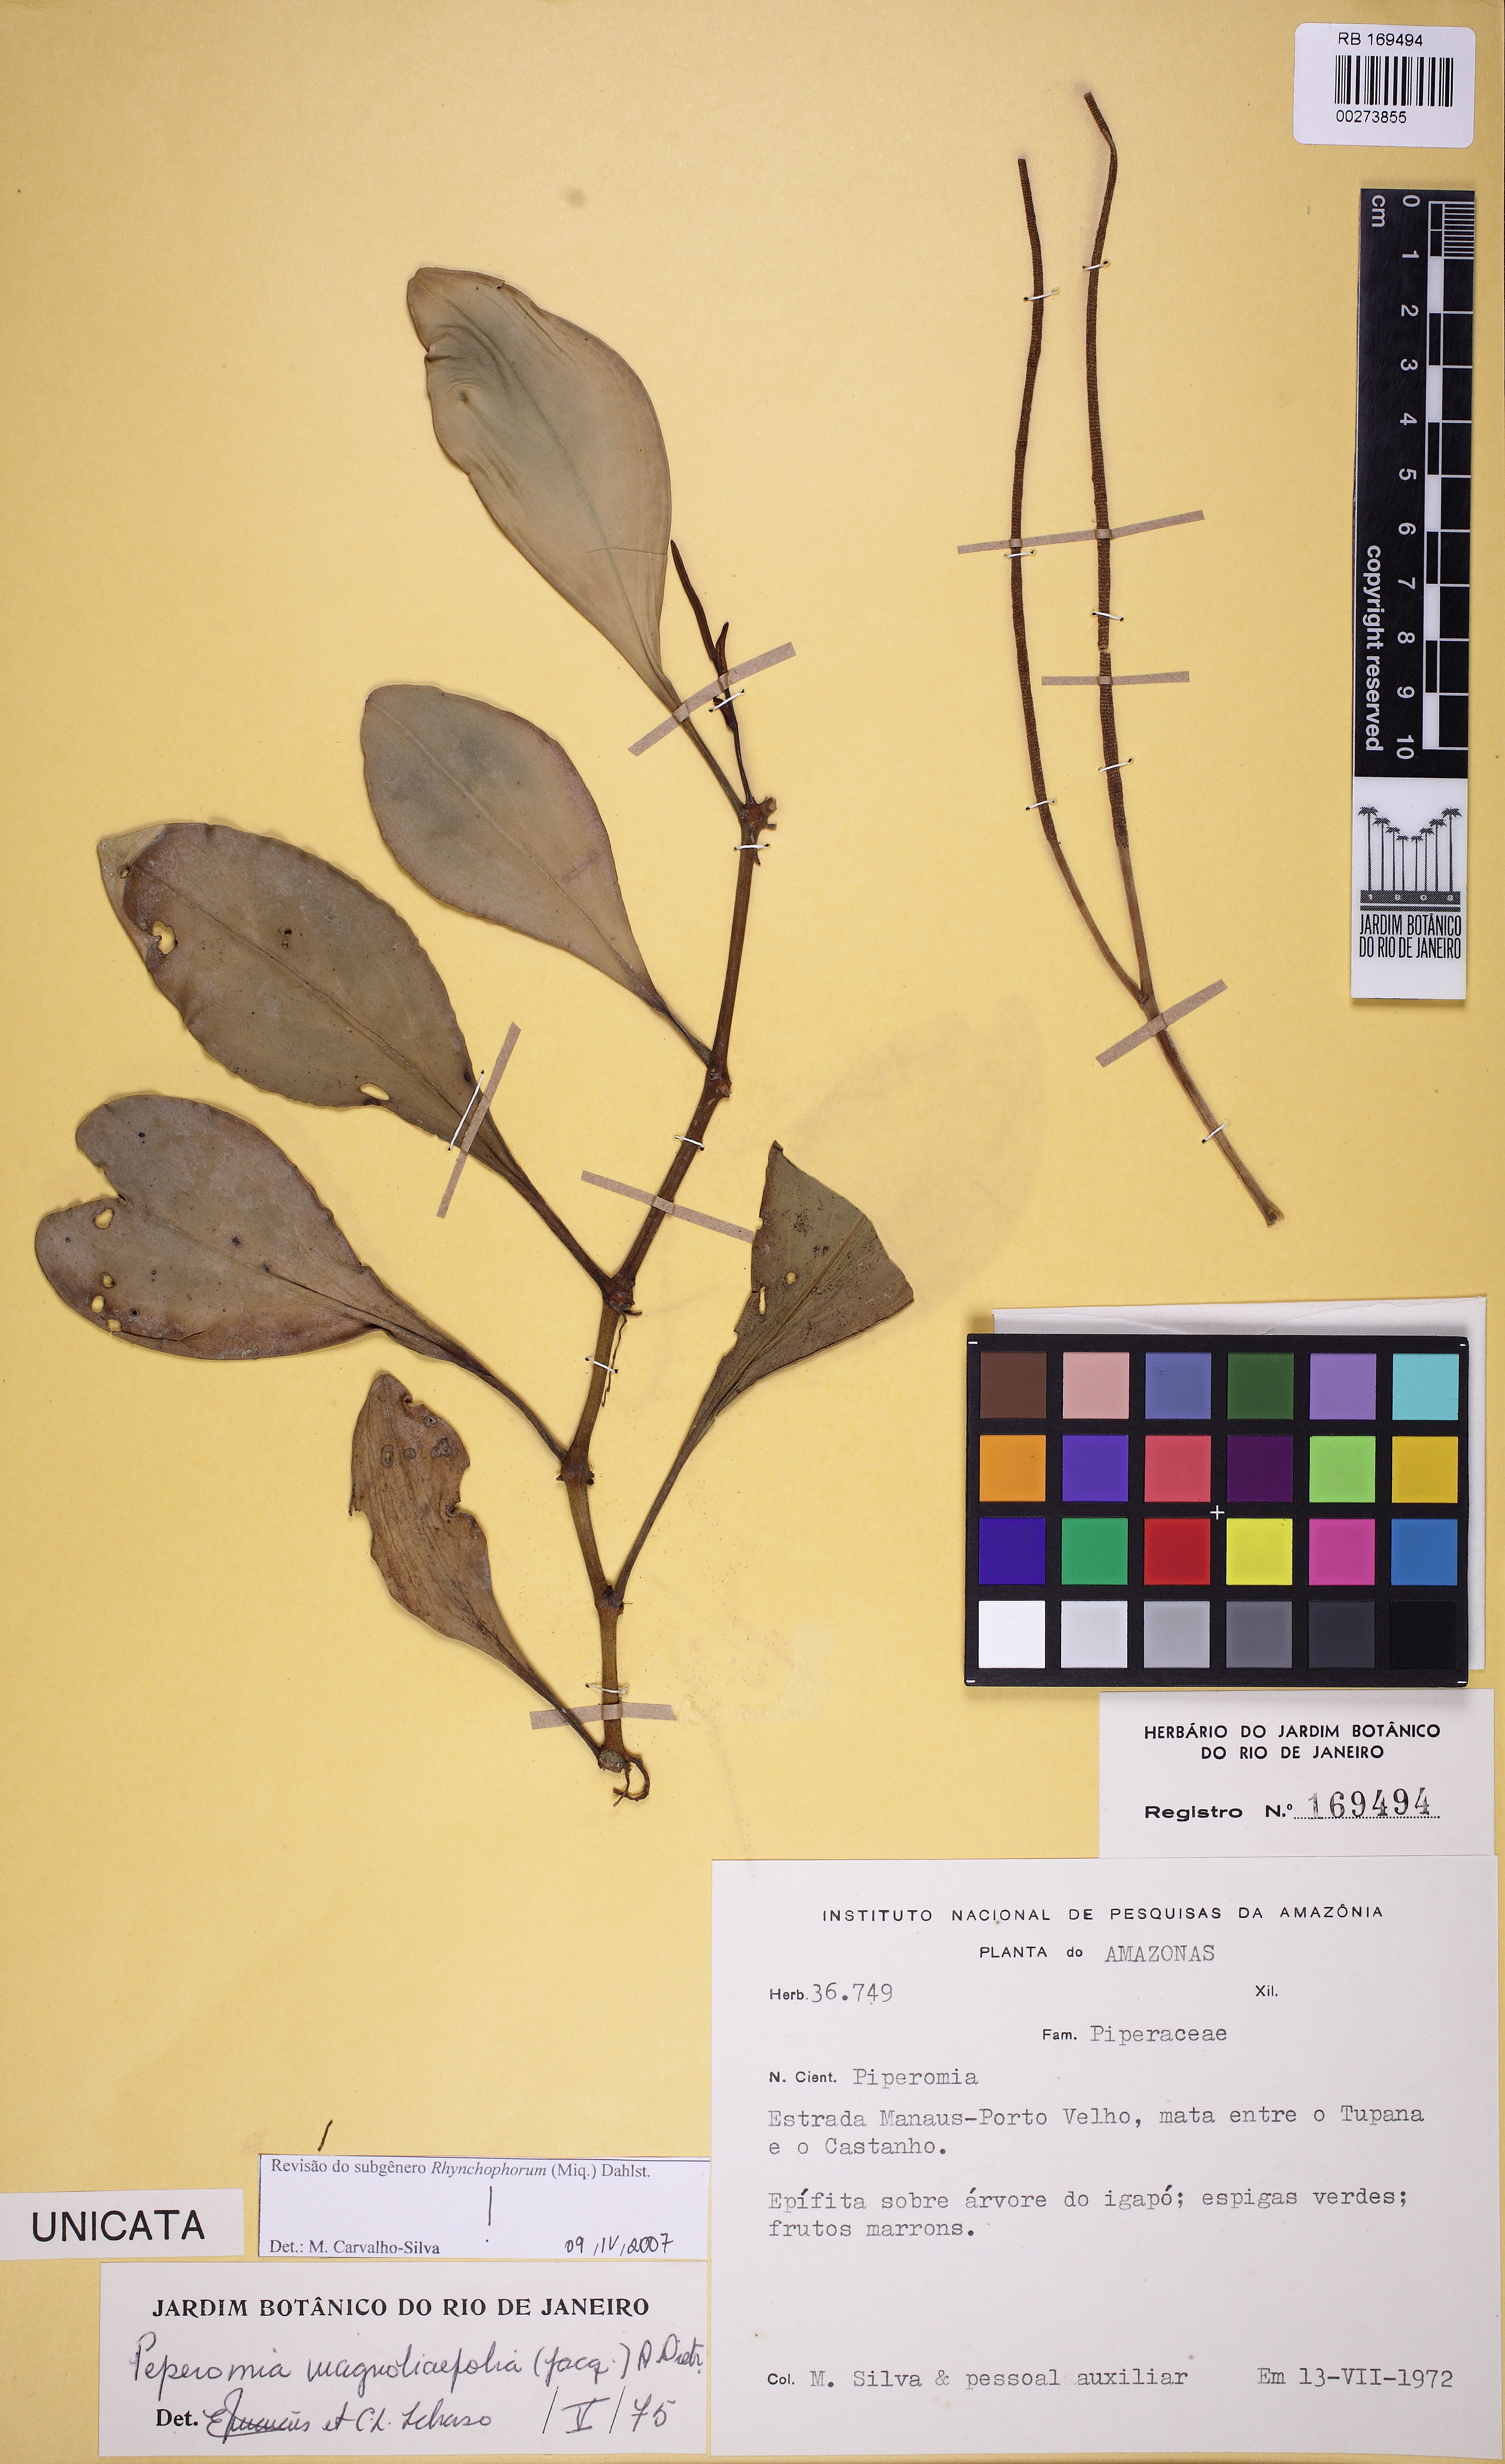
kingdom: Plantae
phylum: Tracheophyta
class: Magnoliopsida
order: Piperales
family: Piperaceae
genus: Peperomia
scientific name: Peperomia magnoliifolia
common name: Spoonleaf peperomia
